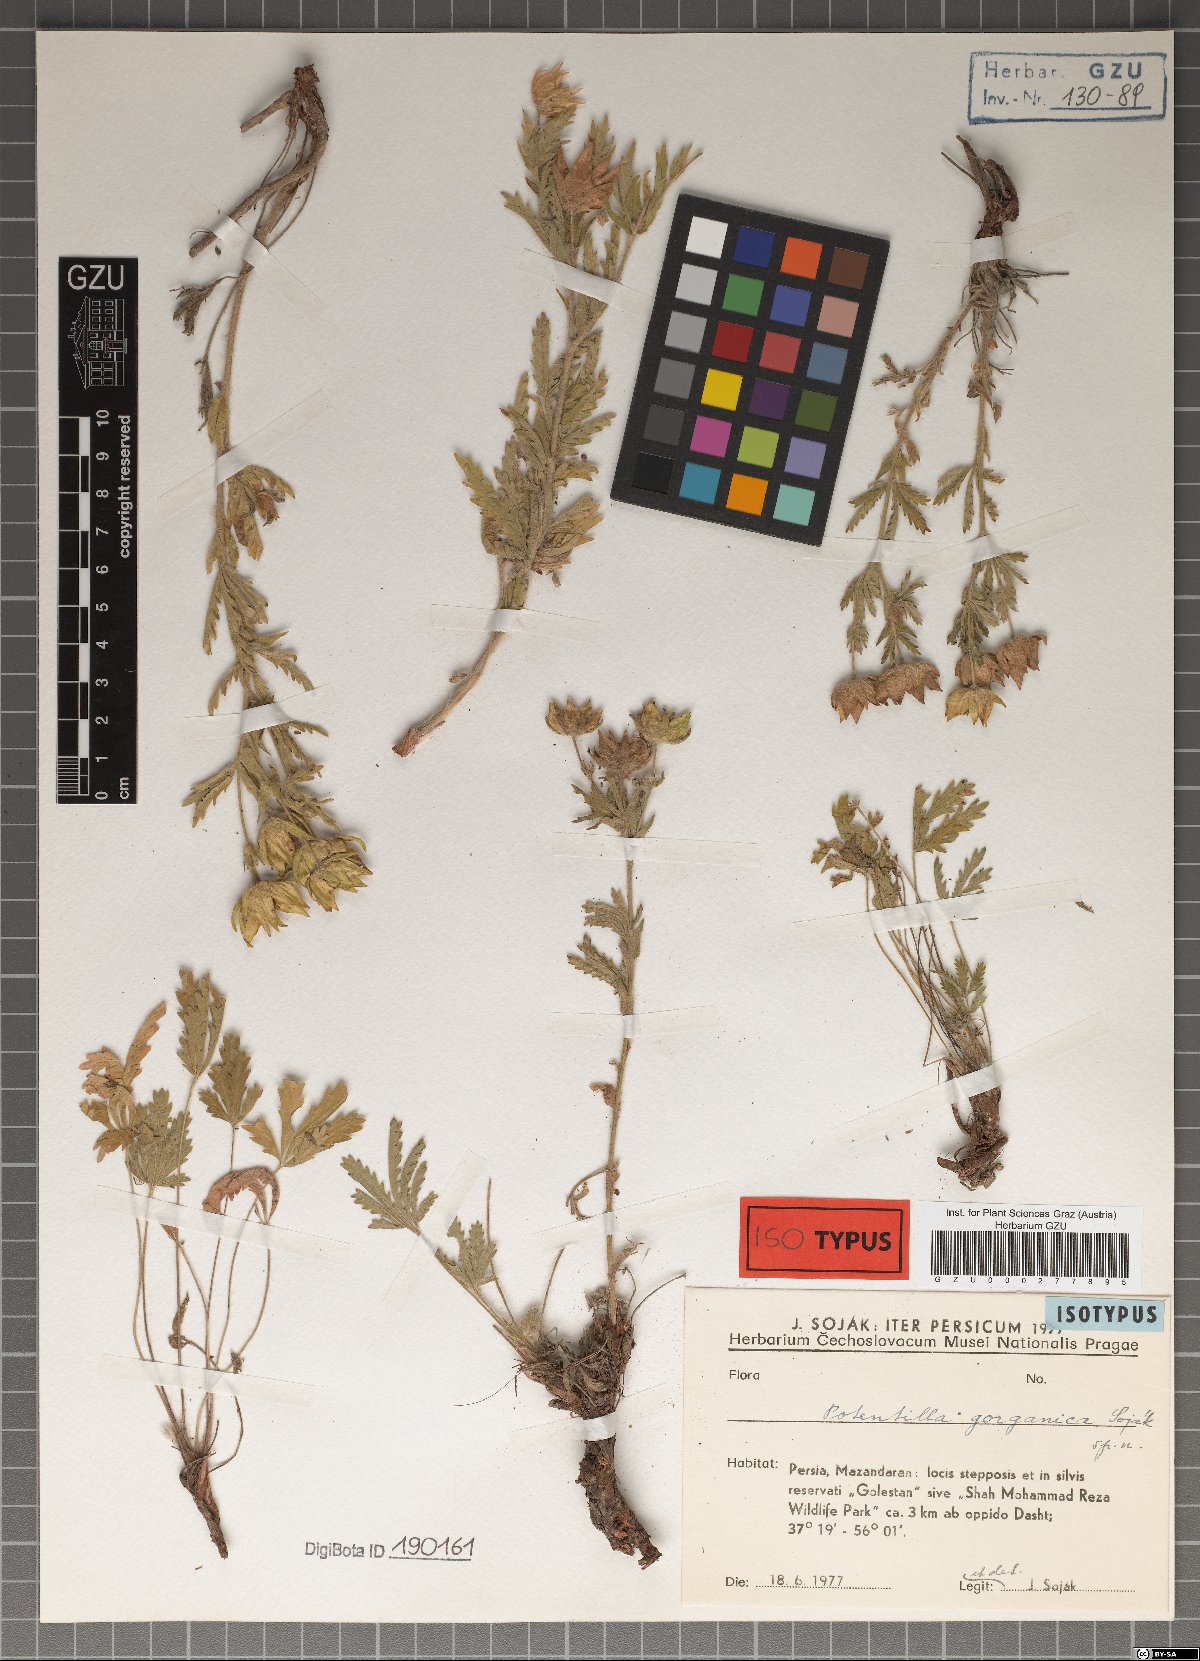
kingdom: Plantae
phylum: Tracheophyta
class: Magnoliopsida
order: Rosales
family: Rosaceae
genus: Potentilla
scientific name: Potentilla gorganica
